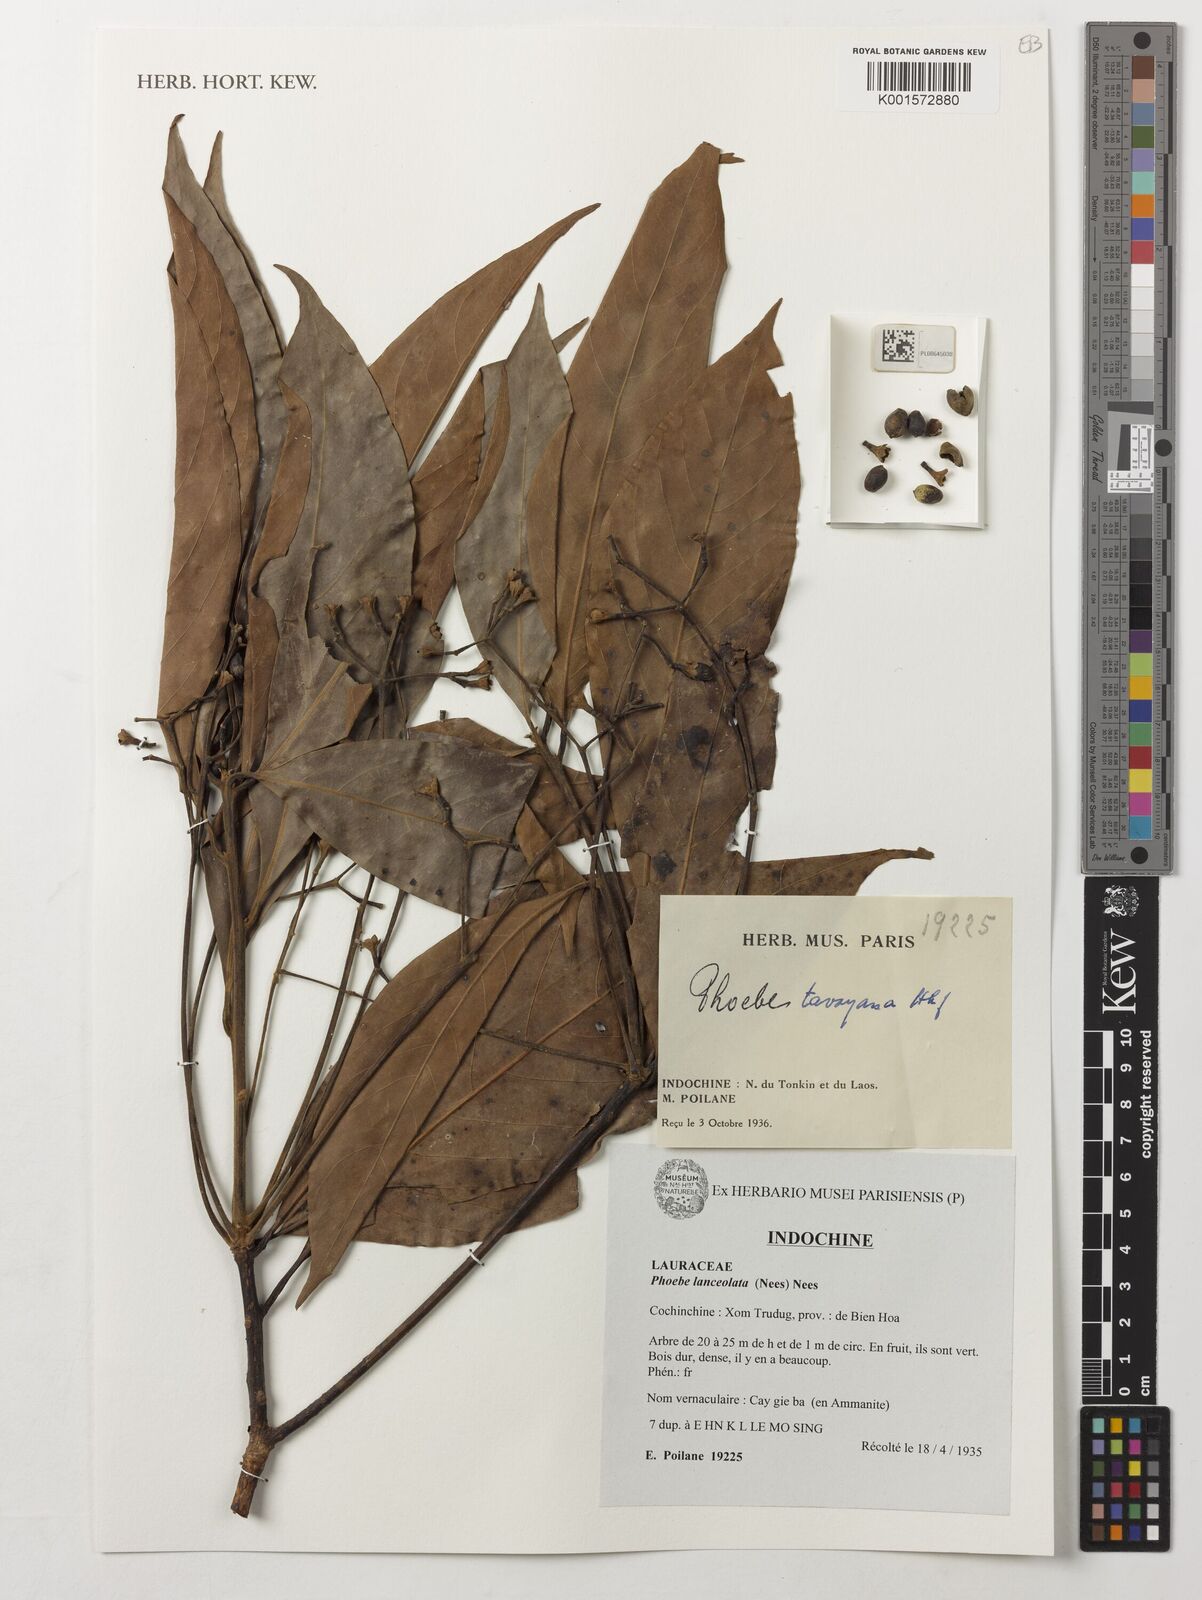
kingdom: Plantae
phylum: Tracheophyta
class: Magnoliopsida
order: Laurales
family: Lauraceae
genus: Phoebe
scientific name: Phoebe lanceolata
